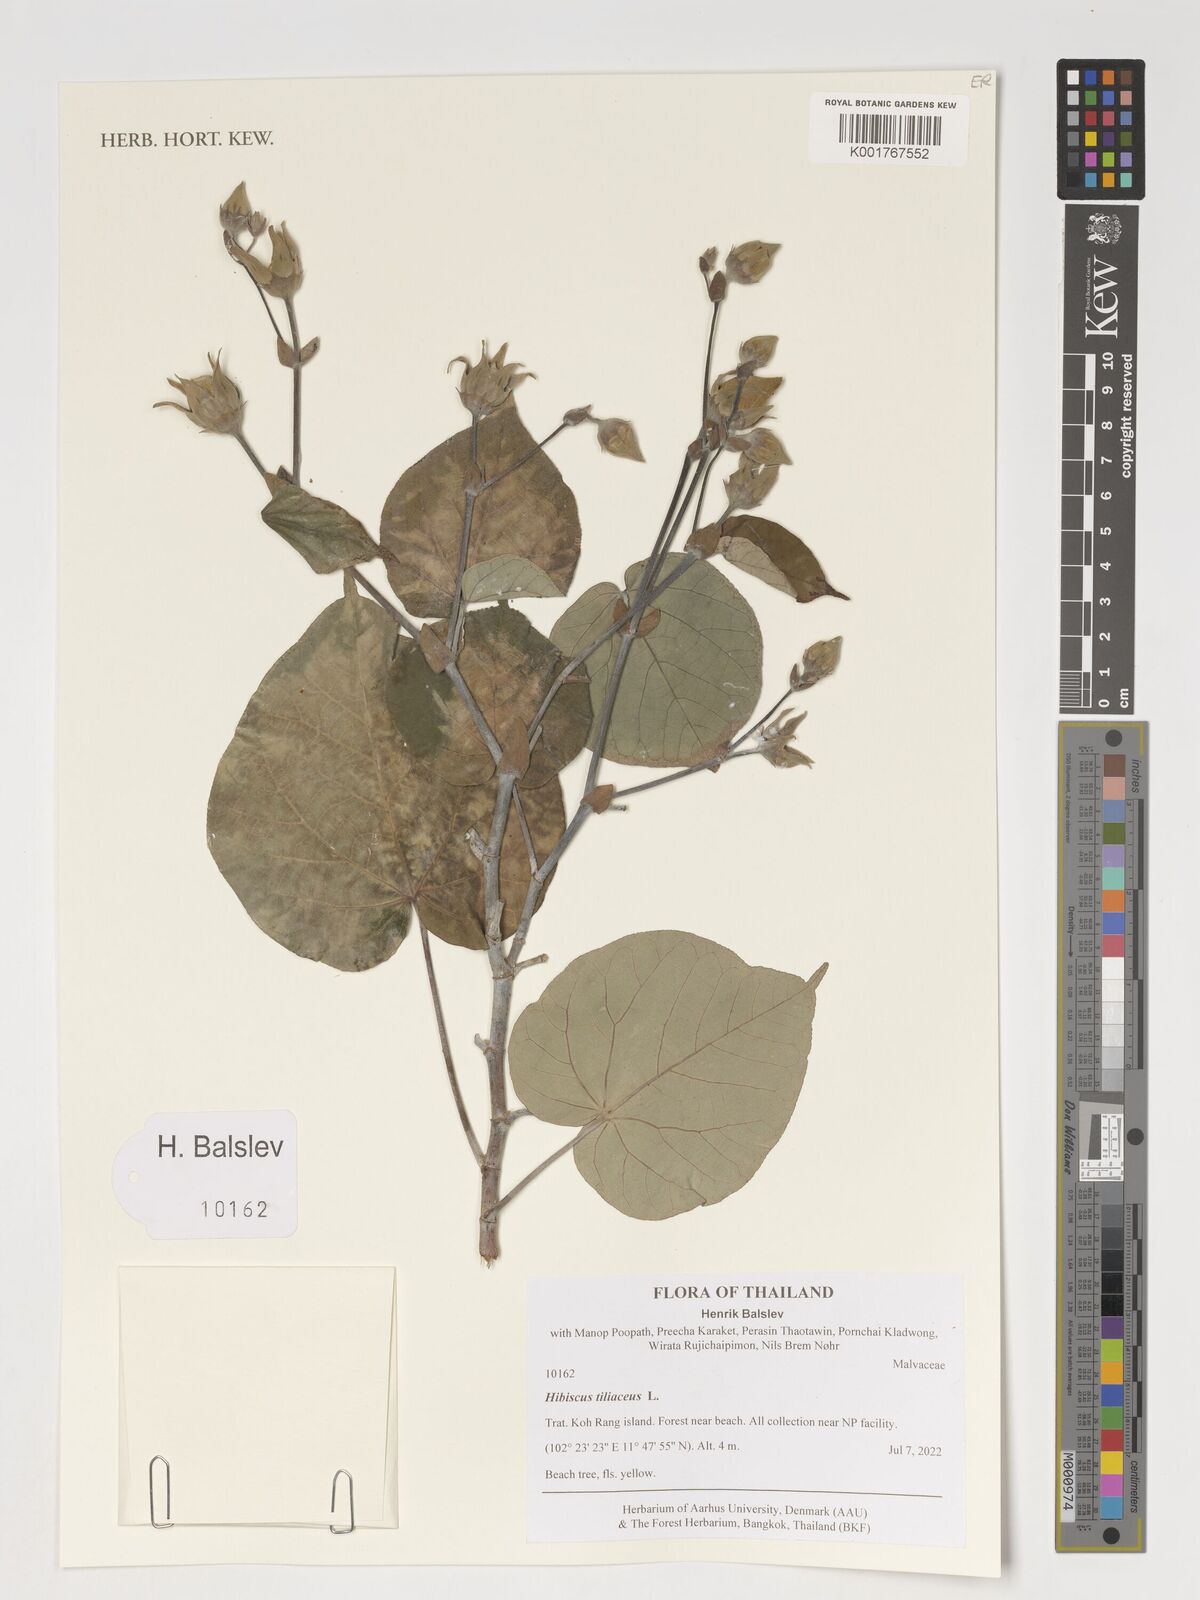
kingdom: Plantae
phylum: Tracheophyta
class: Magnoliopsida
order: Malvales
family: Malvaceae
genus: Talipariti
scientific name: Talipariti tiliaceum
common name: Sea hibiscus
